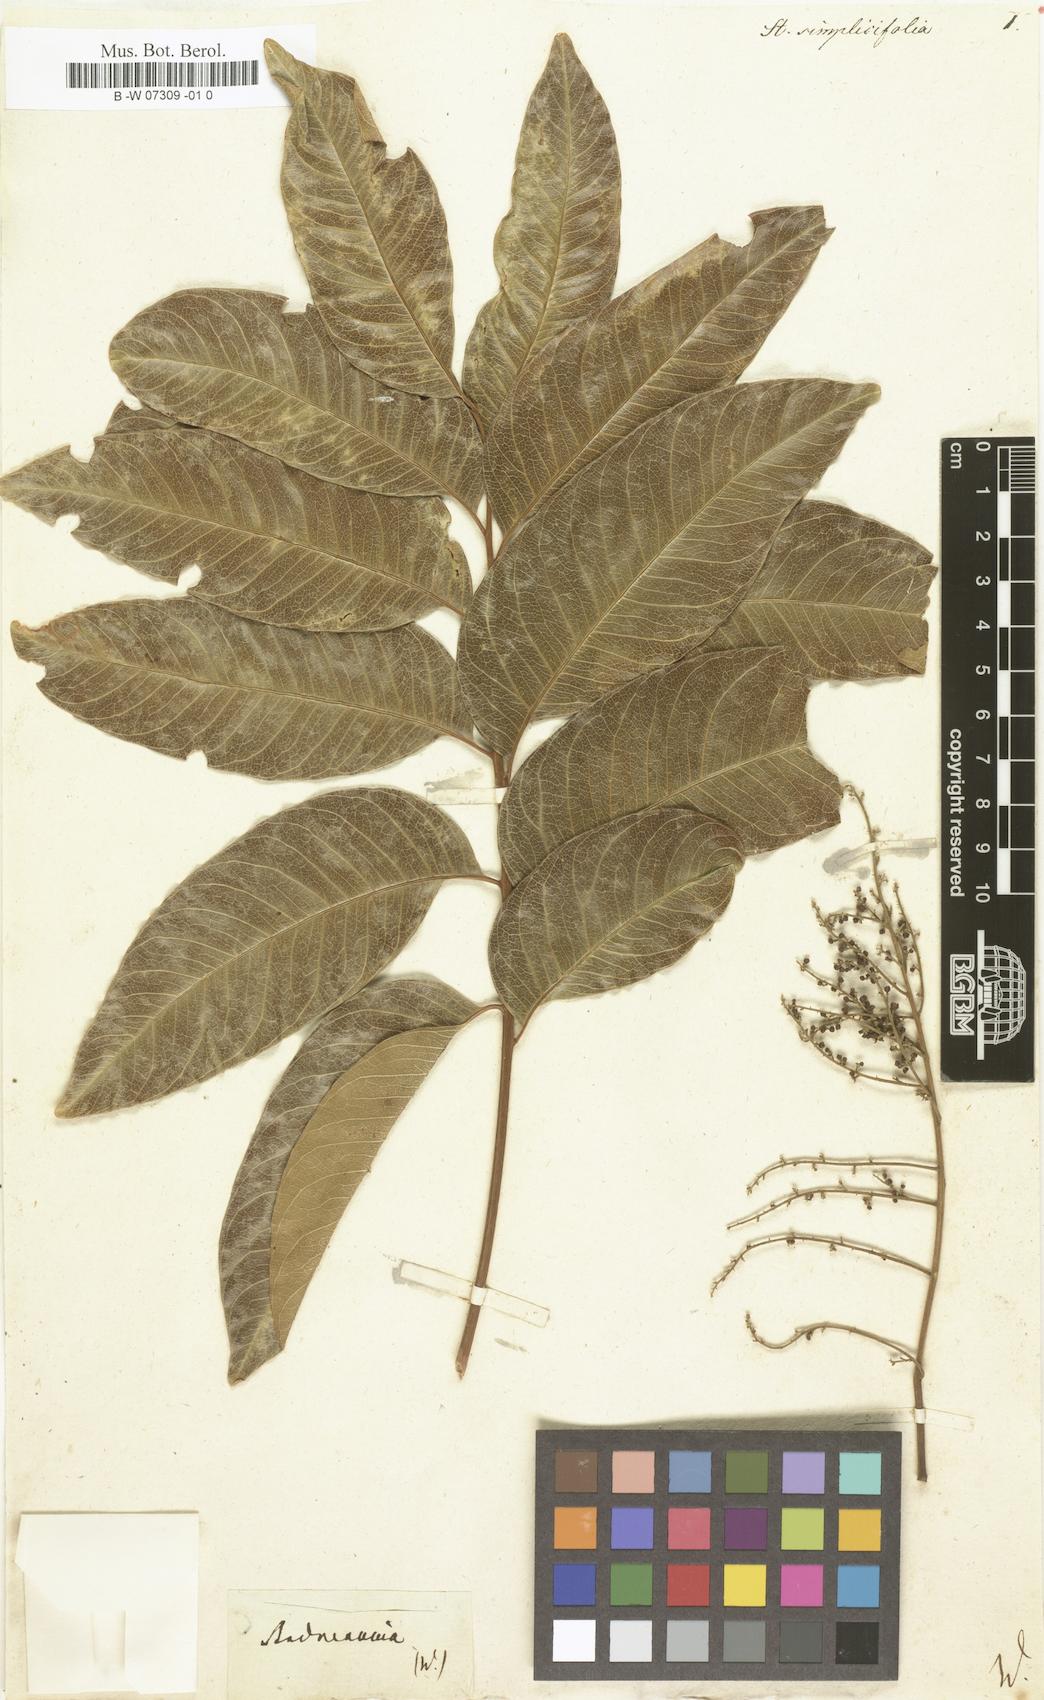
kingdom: Plantae
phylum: Tracheophyta
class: Magnoliopsida
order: Sapindales
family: Sapindaceae
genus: Stadmannia
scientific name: Stadmannia
